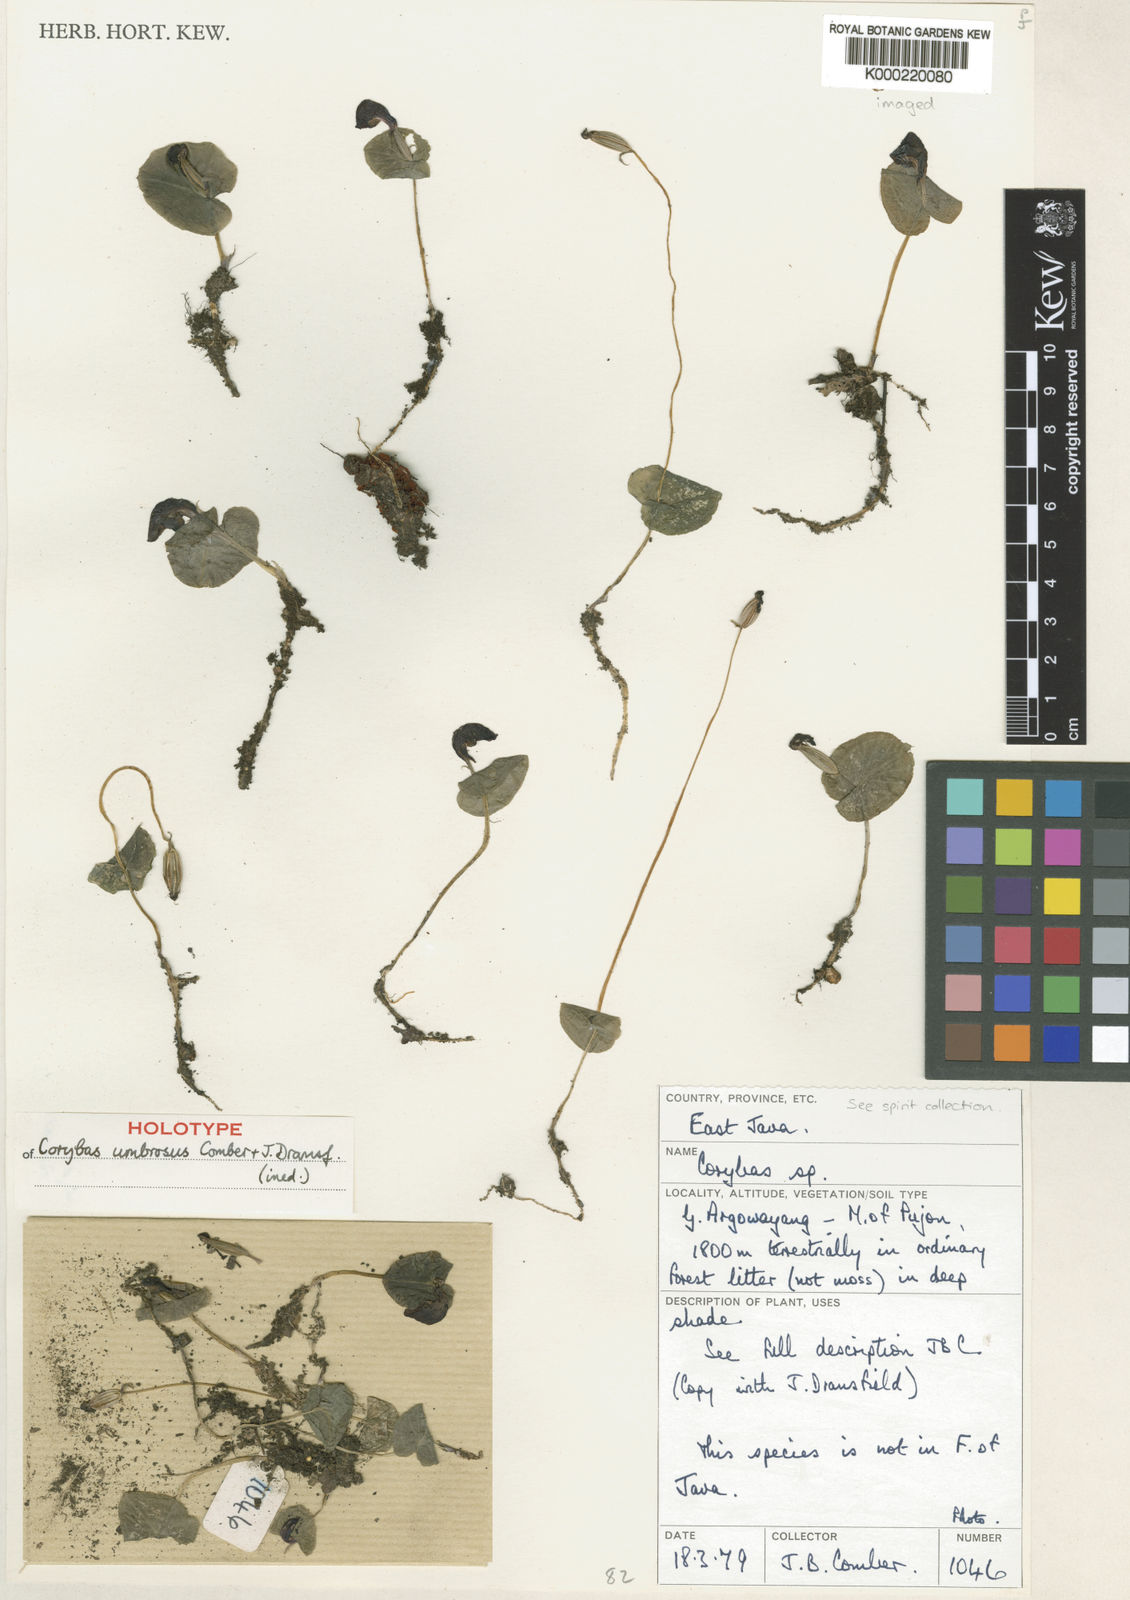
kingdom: Plantae
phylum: Tracheophyta
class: Liliopsida
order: Asparagales
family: Orchidaceae
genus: Corybas
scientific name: Corybas umbrosus
